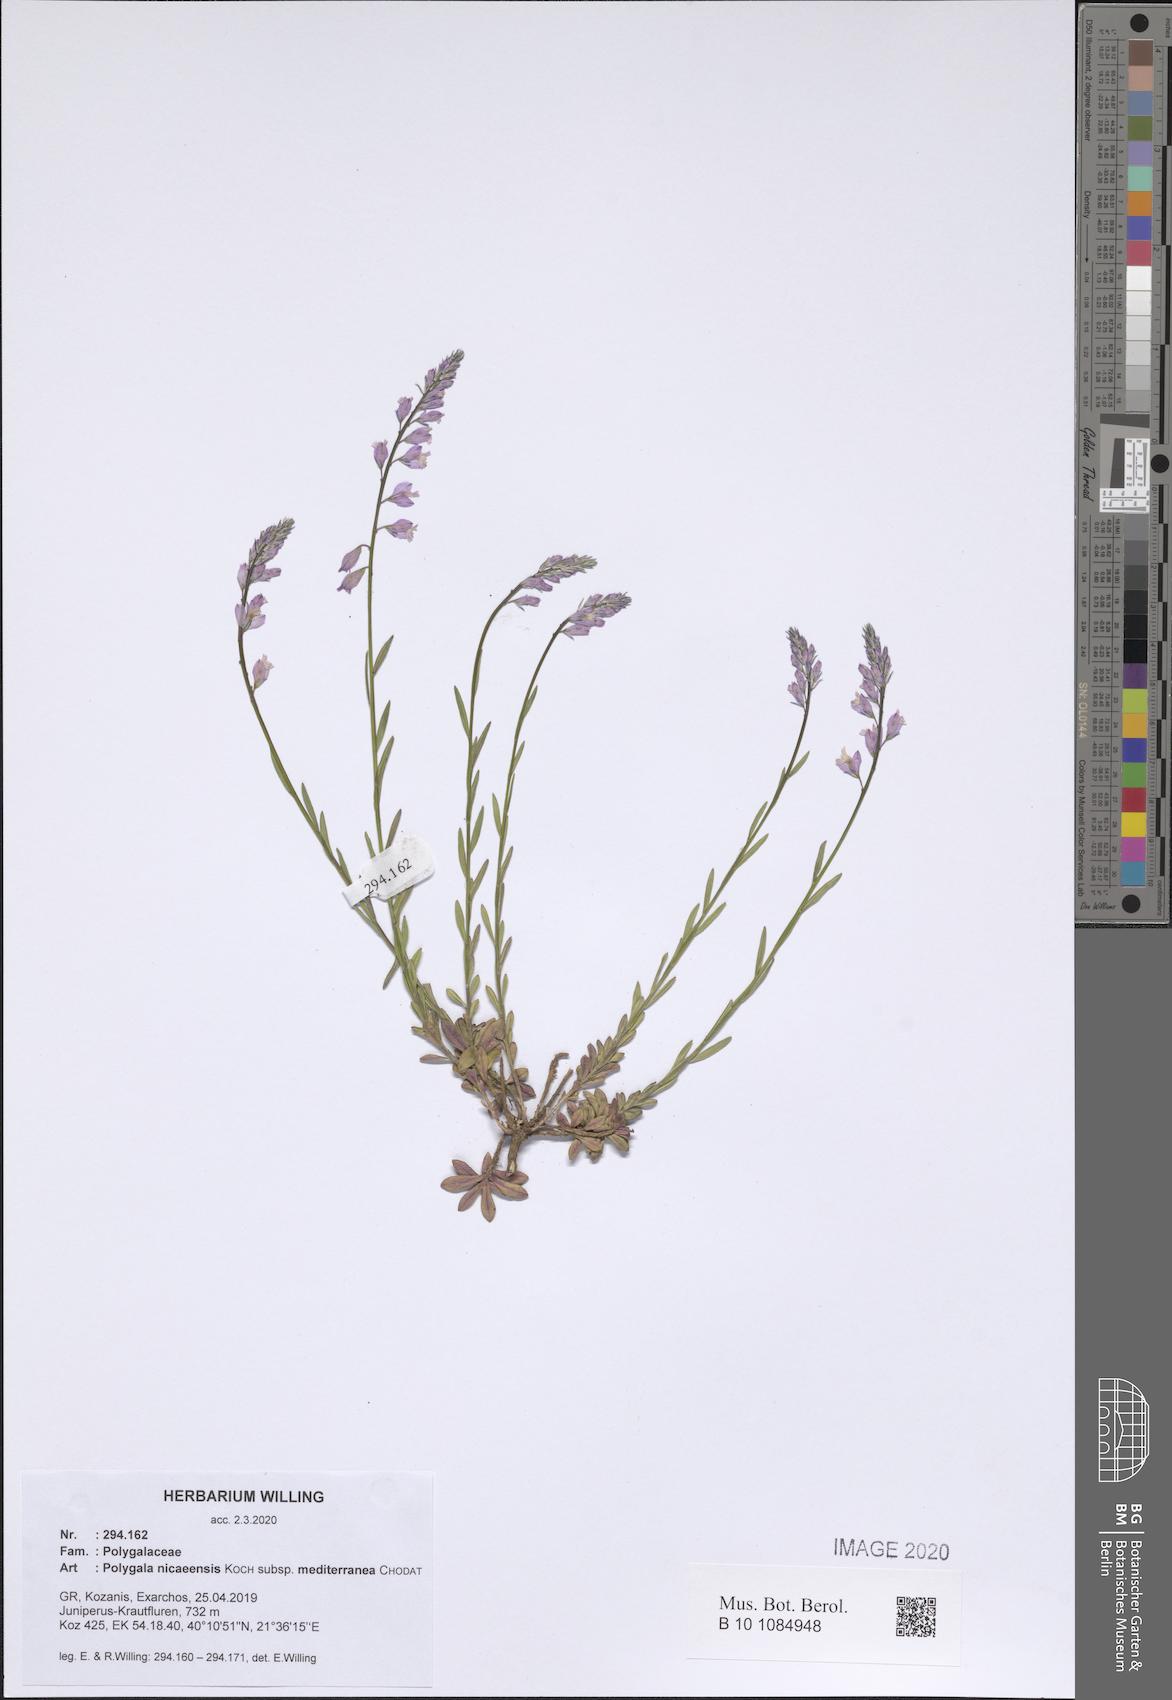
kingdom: Plantae
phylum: Tracheophyta
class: Magnoliopsida
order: Fabales
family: Polygalaceae
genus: Polygala
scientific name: Polygala nicaeensis
